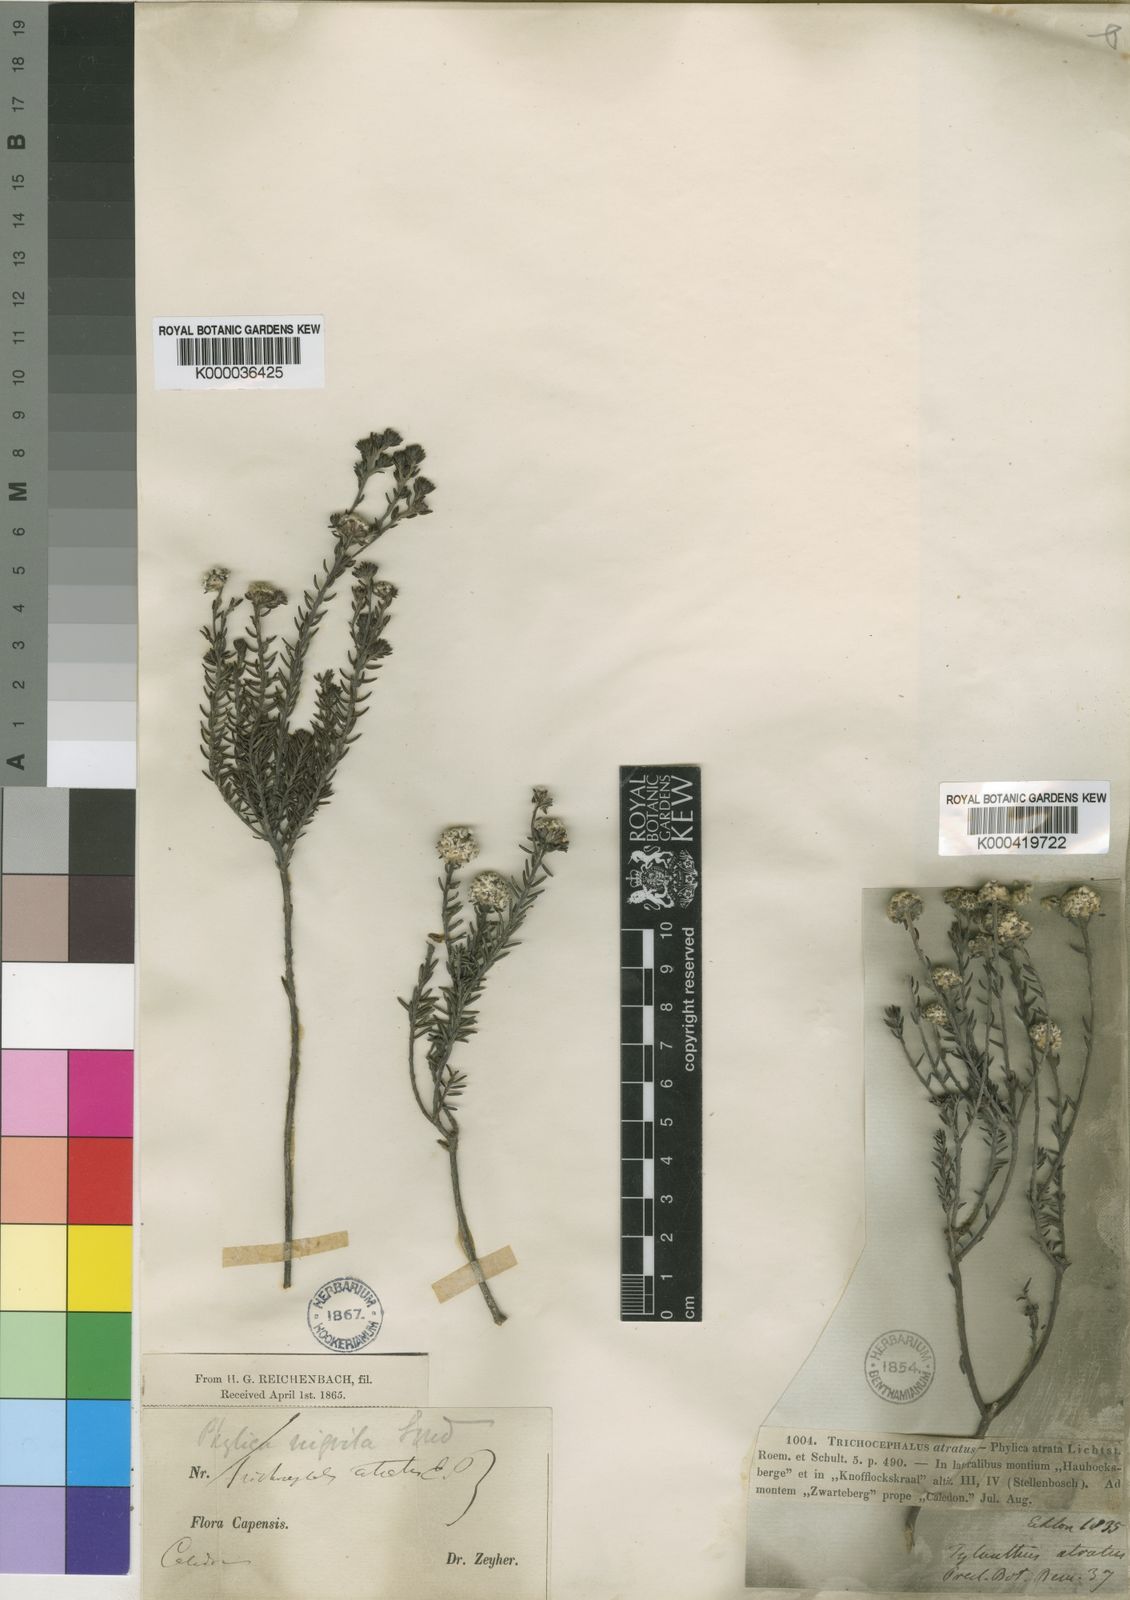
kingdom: Plantae
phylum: Tracheophyta
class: Magnoliopsida
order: Rosales
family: Rhamnaceae
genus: Phylica
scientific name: Phylica nigrita
